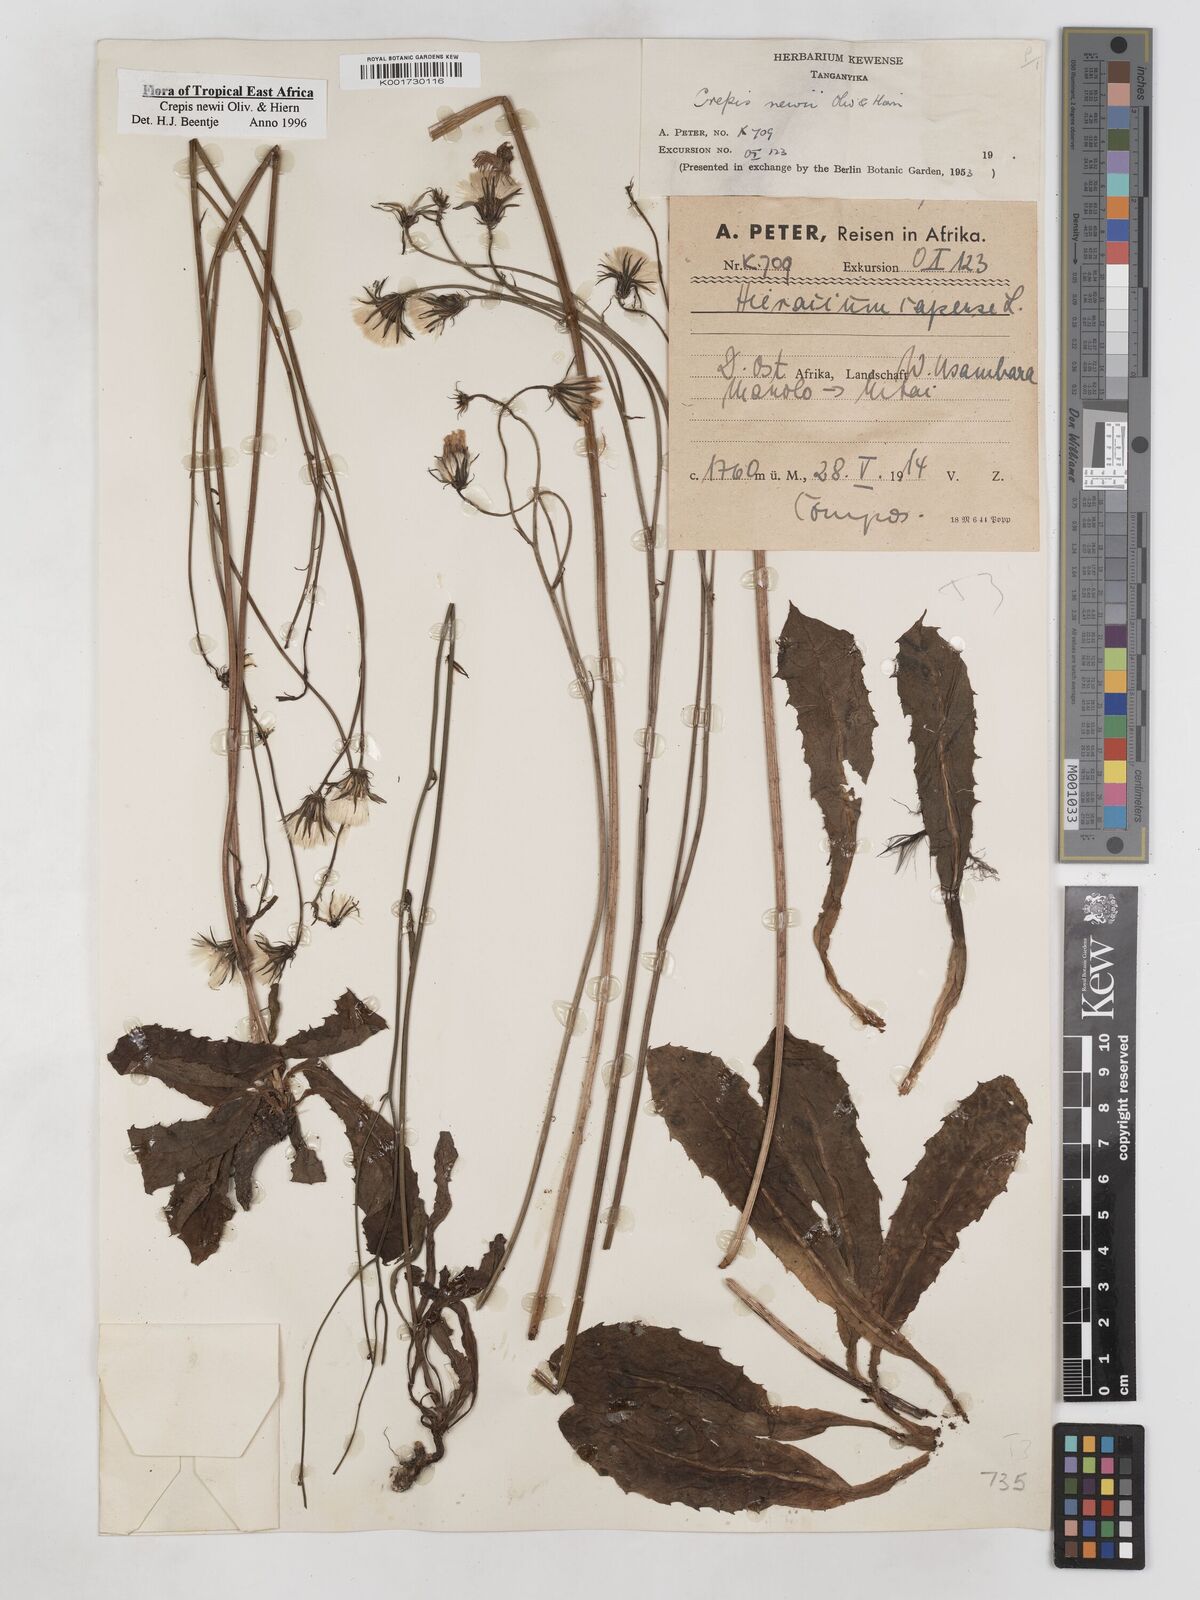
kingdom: Plantae
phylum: Tracheophyta
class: Magnoliopsida
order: Asterales
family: Asteraceae
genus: Crepis
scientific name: Crepis hypochoeridea
